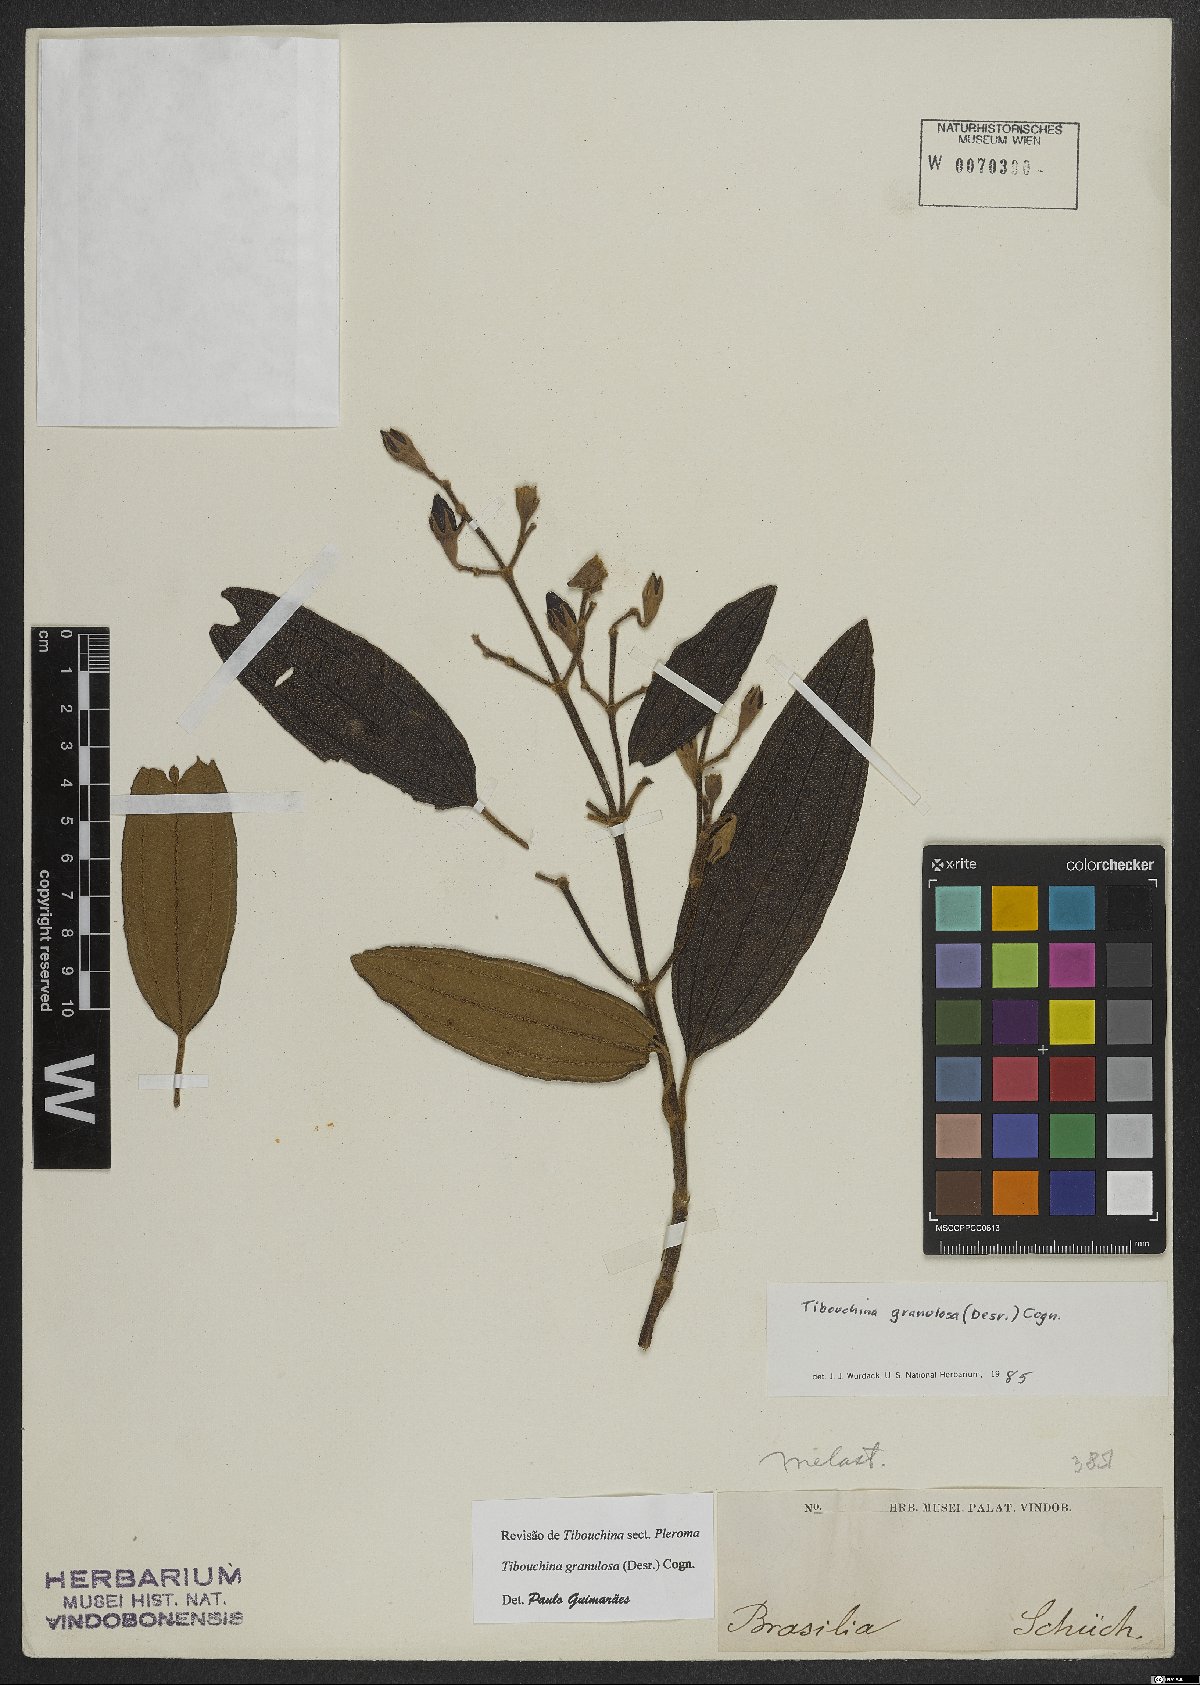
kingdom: Plantae
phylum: Tracheophyta
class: Magnoliopsida
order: Myrtales
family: Melastomataceae
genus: Pleroma
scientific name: Pleroma granulosum
